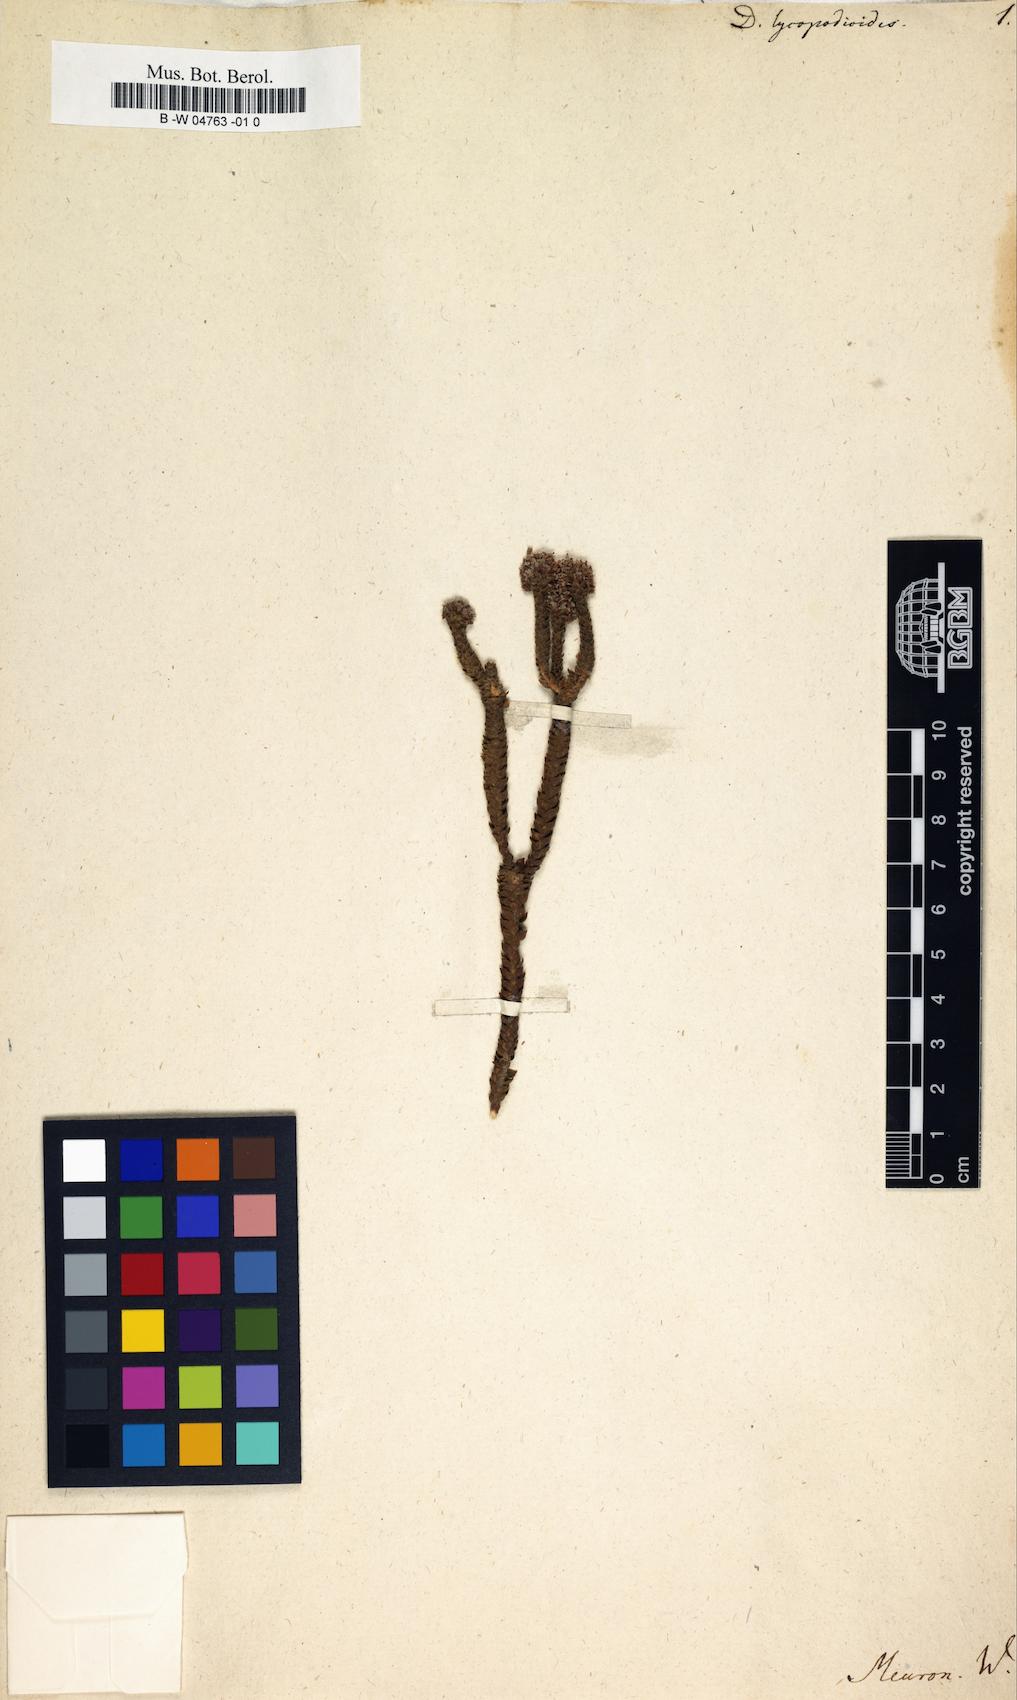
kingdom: Plantae
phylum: Tracheophyta
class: Magnoliopsida
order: Sapindales
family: Rutaceae
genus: Agathosma
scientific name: Agathosma imbricata
